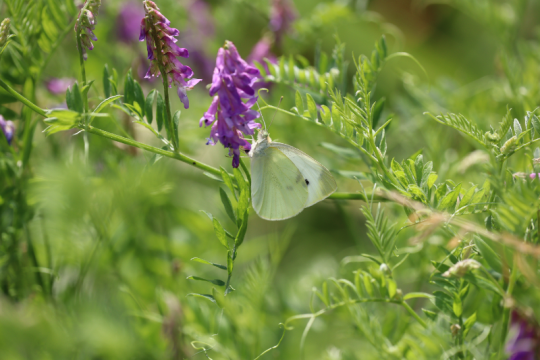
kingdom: Animalia
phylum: Arthropoda
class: Insecta
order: Lepidoptera
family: Pieridae
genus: Pieris
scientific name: Pieris rapae
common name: Cabbage White
